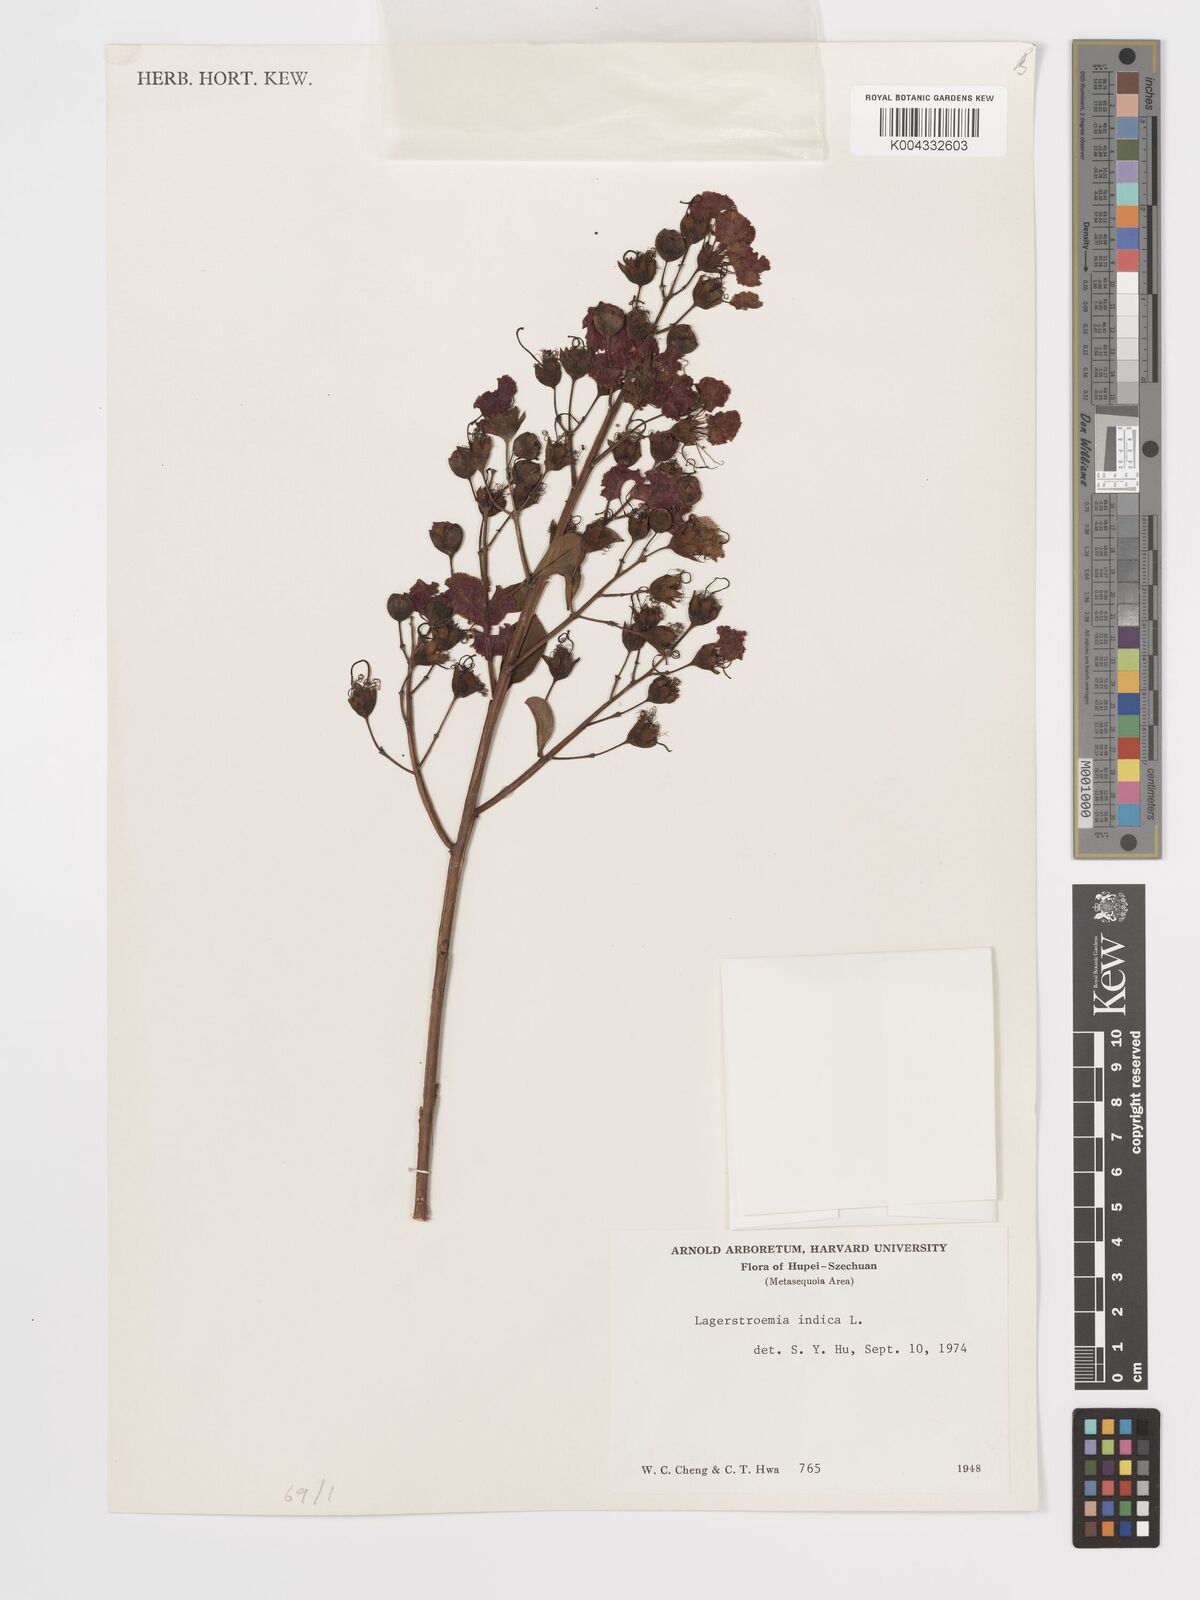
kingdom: Plantae
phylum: Tracheophyta
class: Magnoliopsida
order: Myrtales
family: Lythraceae
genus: Lagerstroemia
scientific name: Lagerstroemia indica
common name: Crape-myrtle
